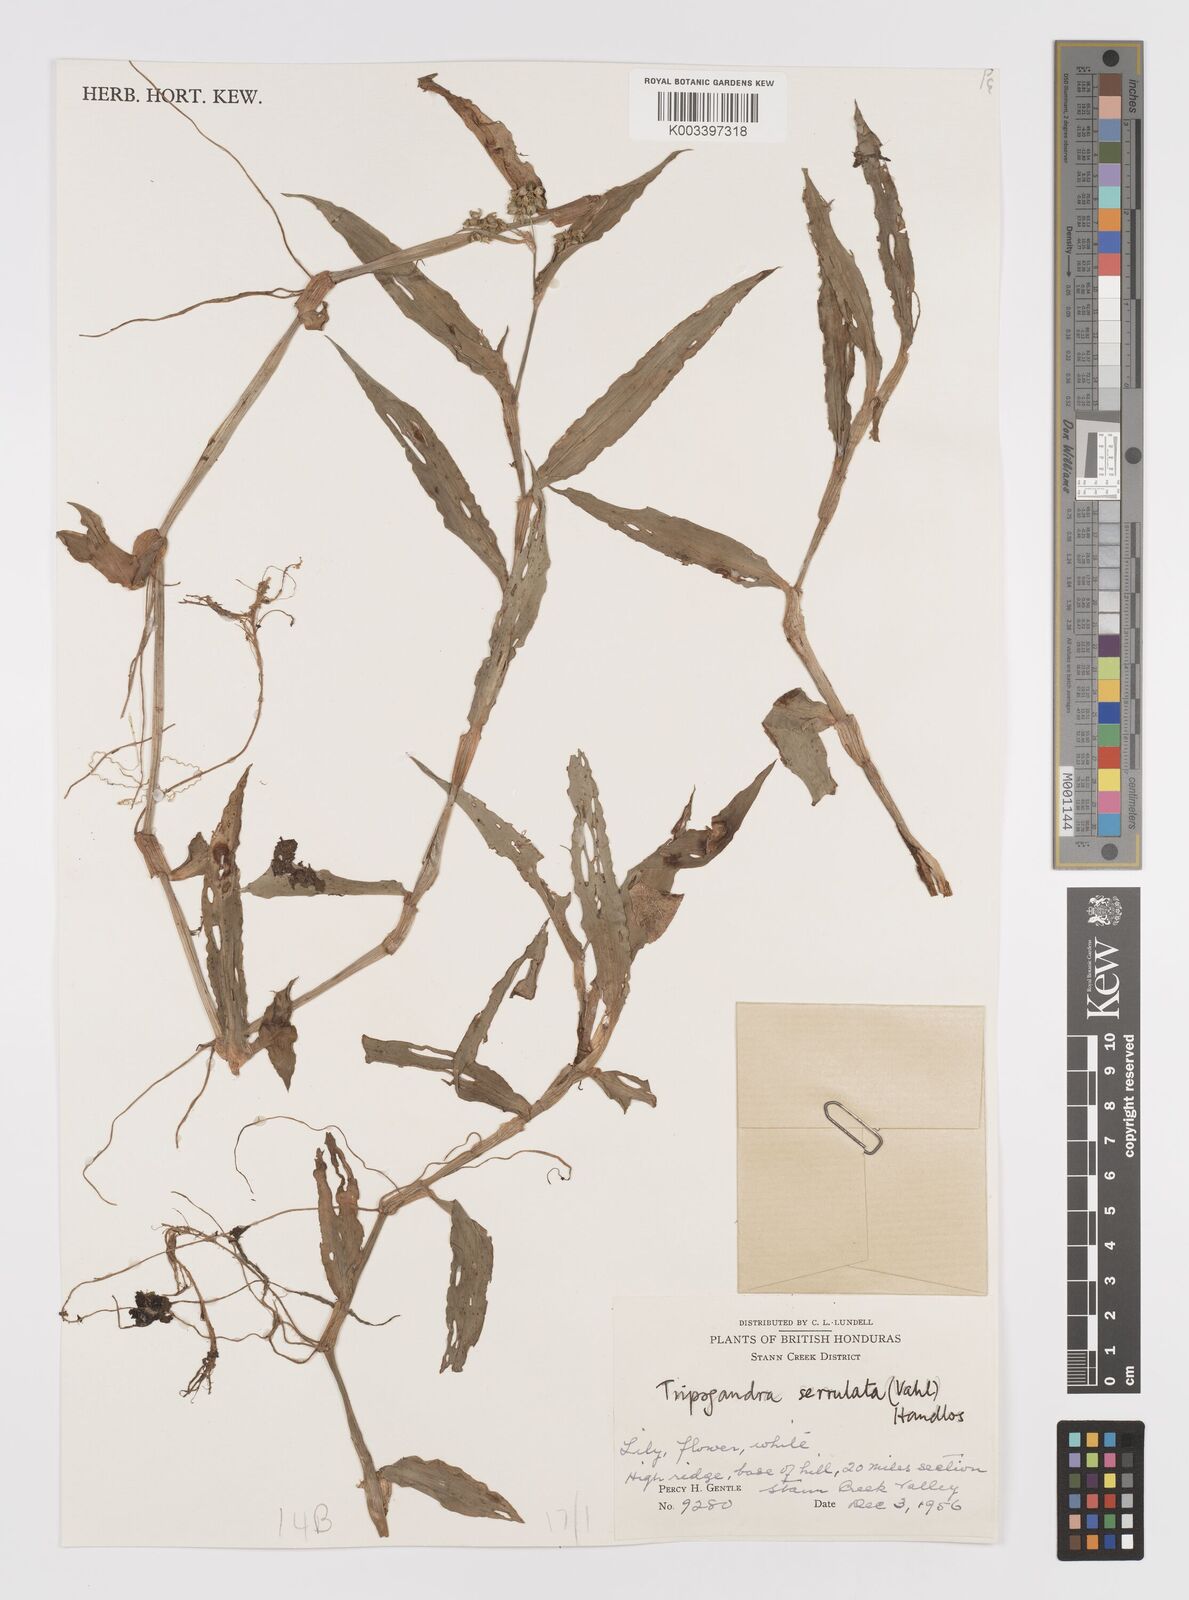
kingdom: Plantae
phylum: Tracheophyta
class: Liliopsida
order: Commelinales
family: Commelinaceae
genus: Callisia
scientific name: Callisia serrulata
